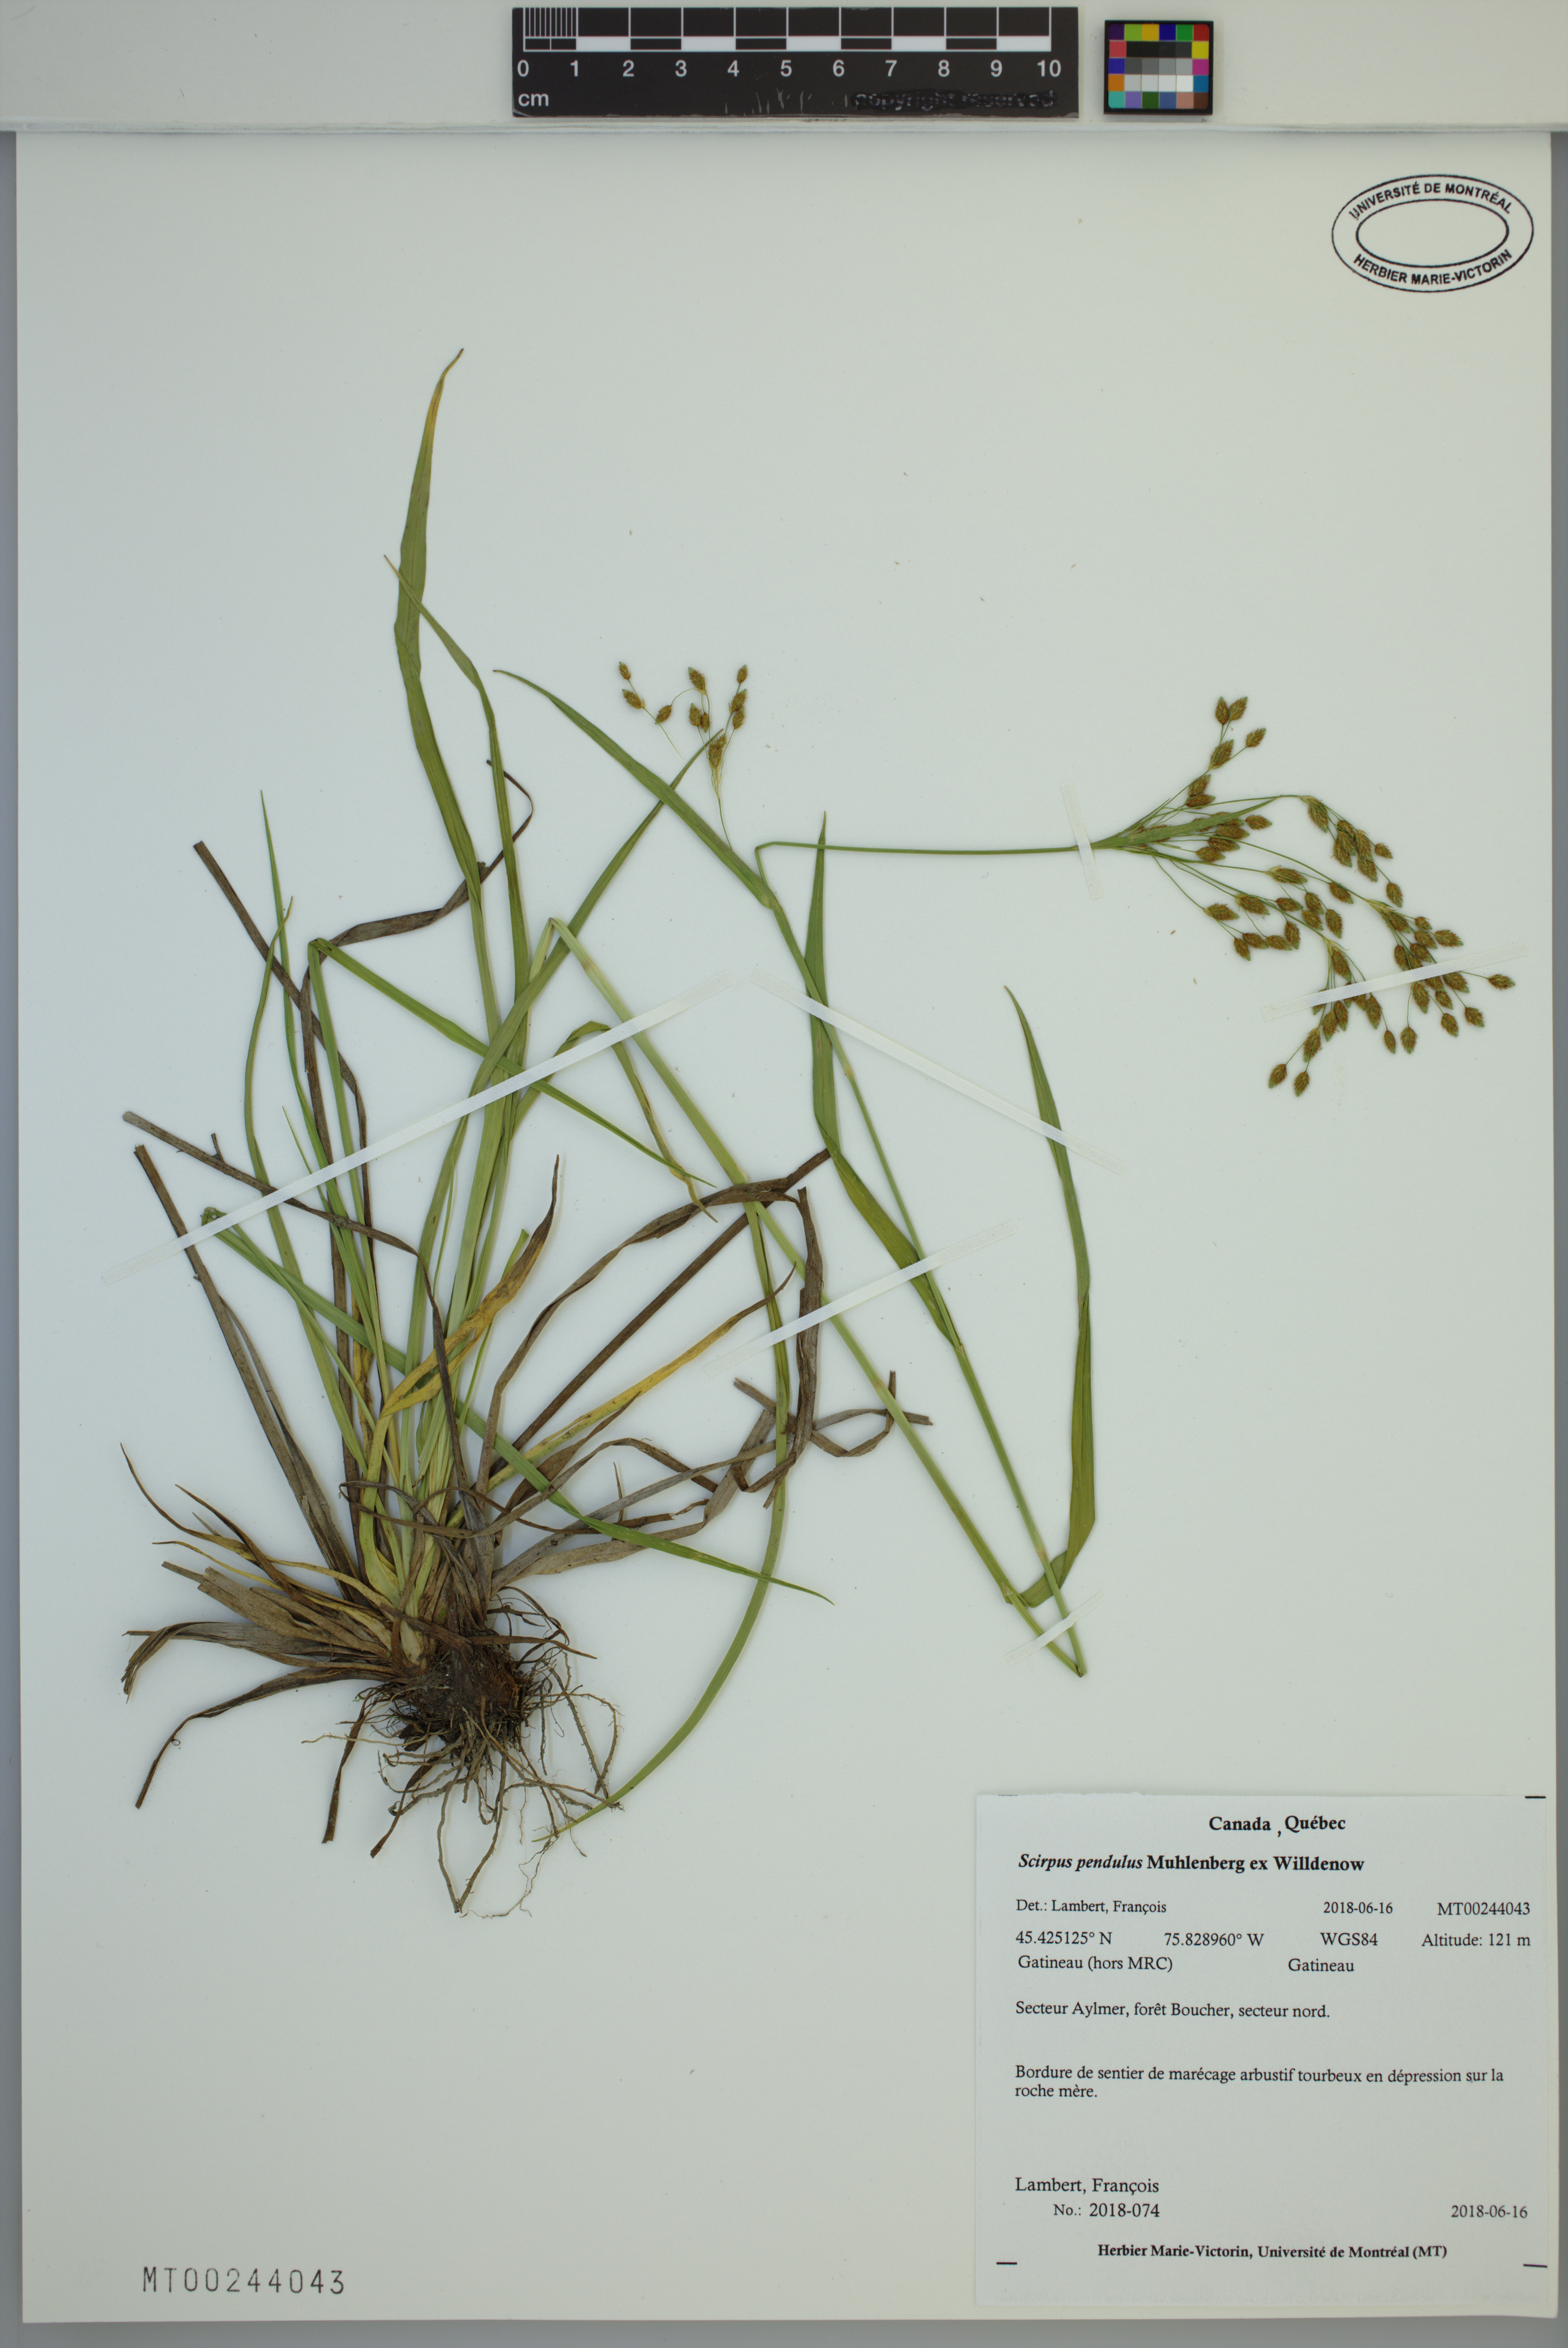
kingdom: Plantae
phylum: Tracheophyta
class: Liliopsida
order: Poales
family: Cyperaceae
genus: Scirpus
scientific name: Scirpus pendulus
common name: Nodding bulrush
